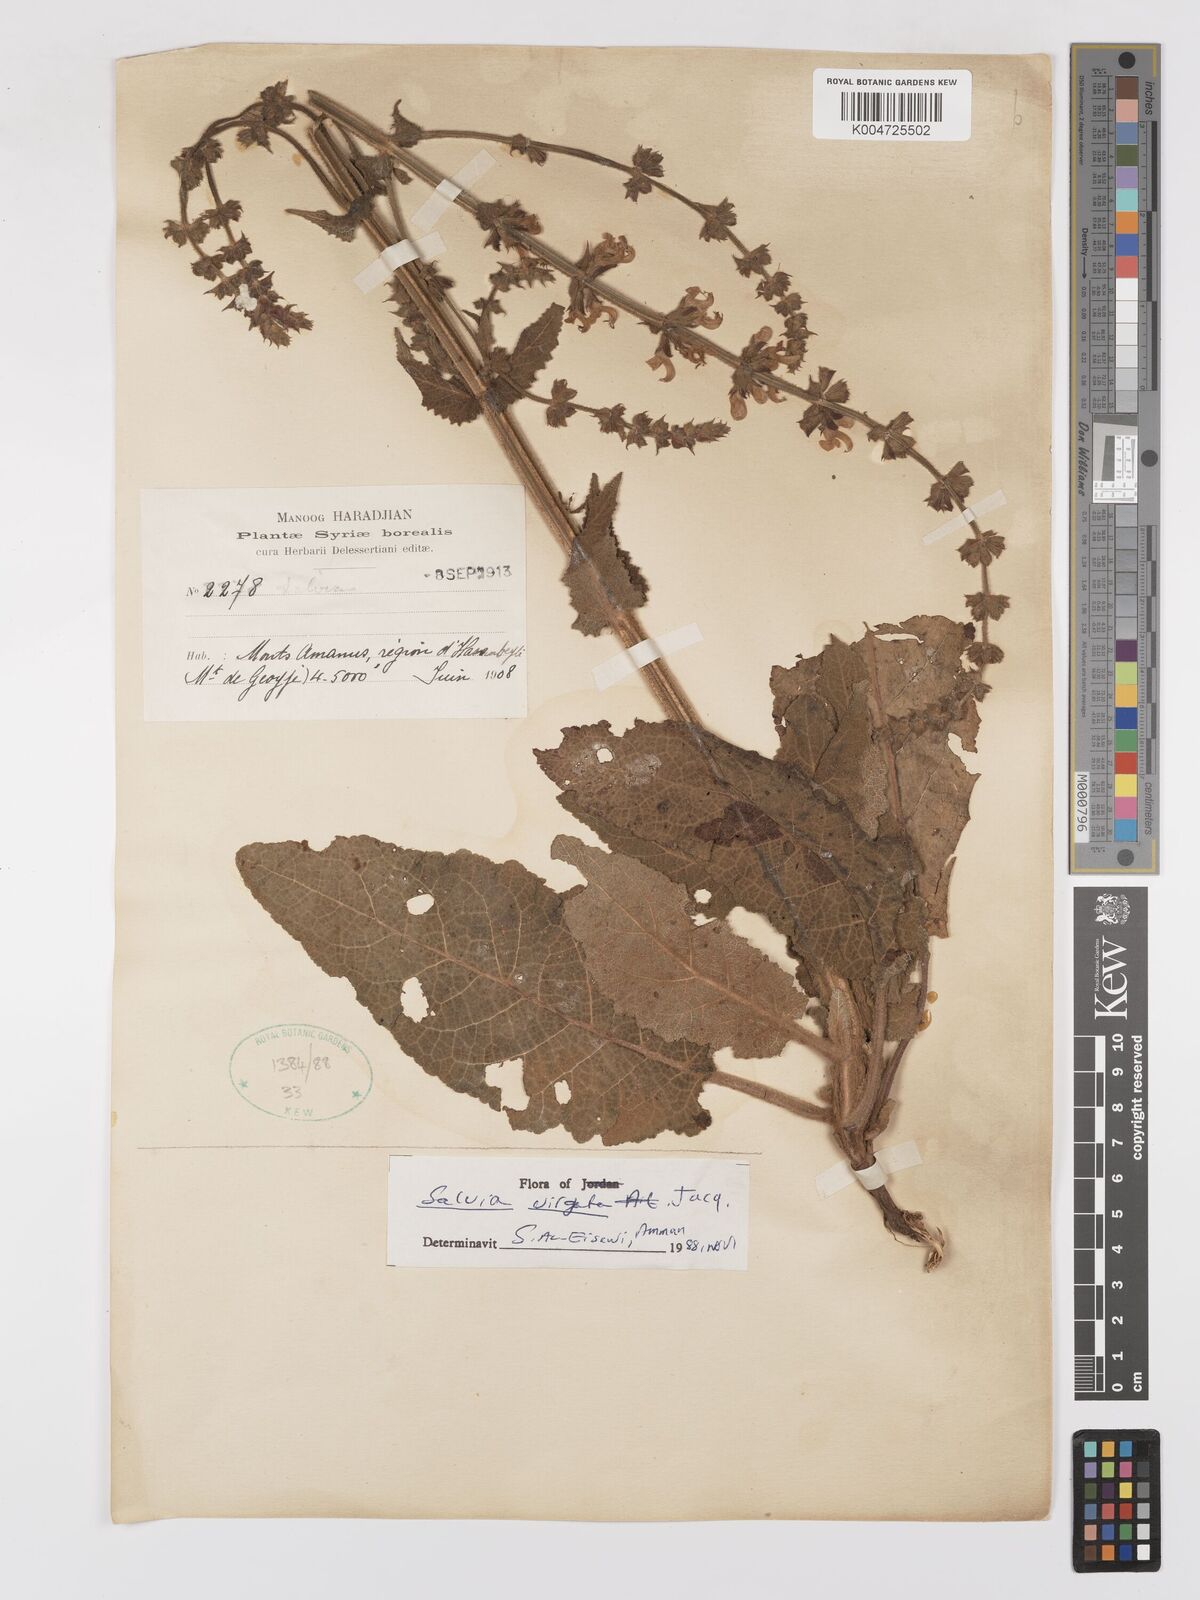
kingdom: Plantae
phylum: Tracheophyta
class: Magnoliopsida
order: Lamiales
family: Lamiaceae
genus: Salvia
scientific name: Salvia
